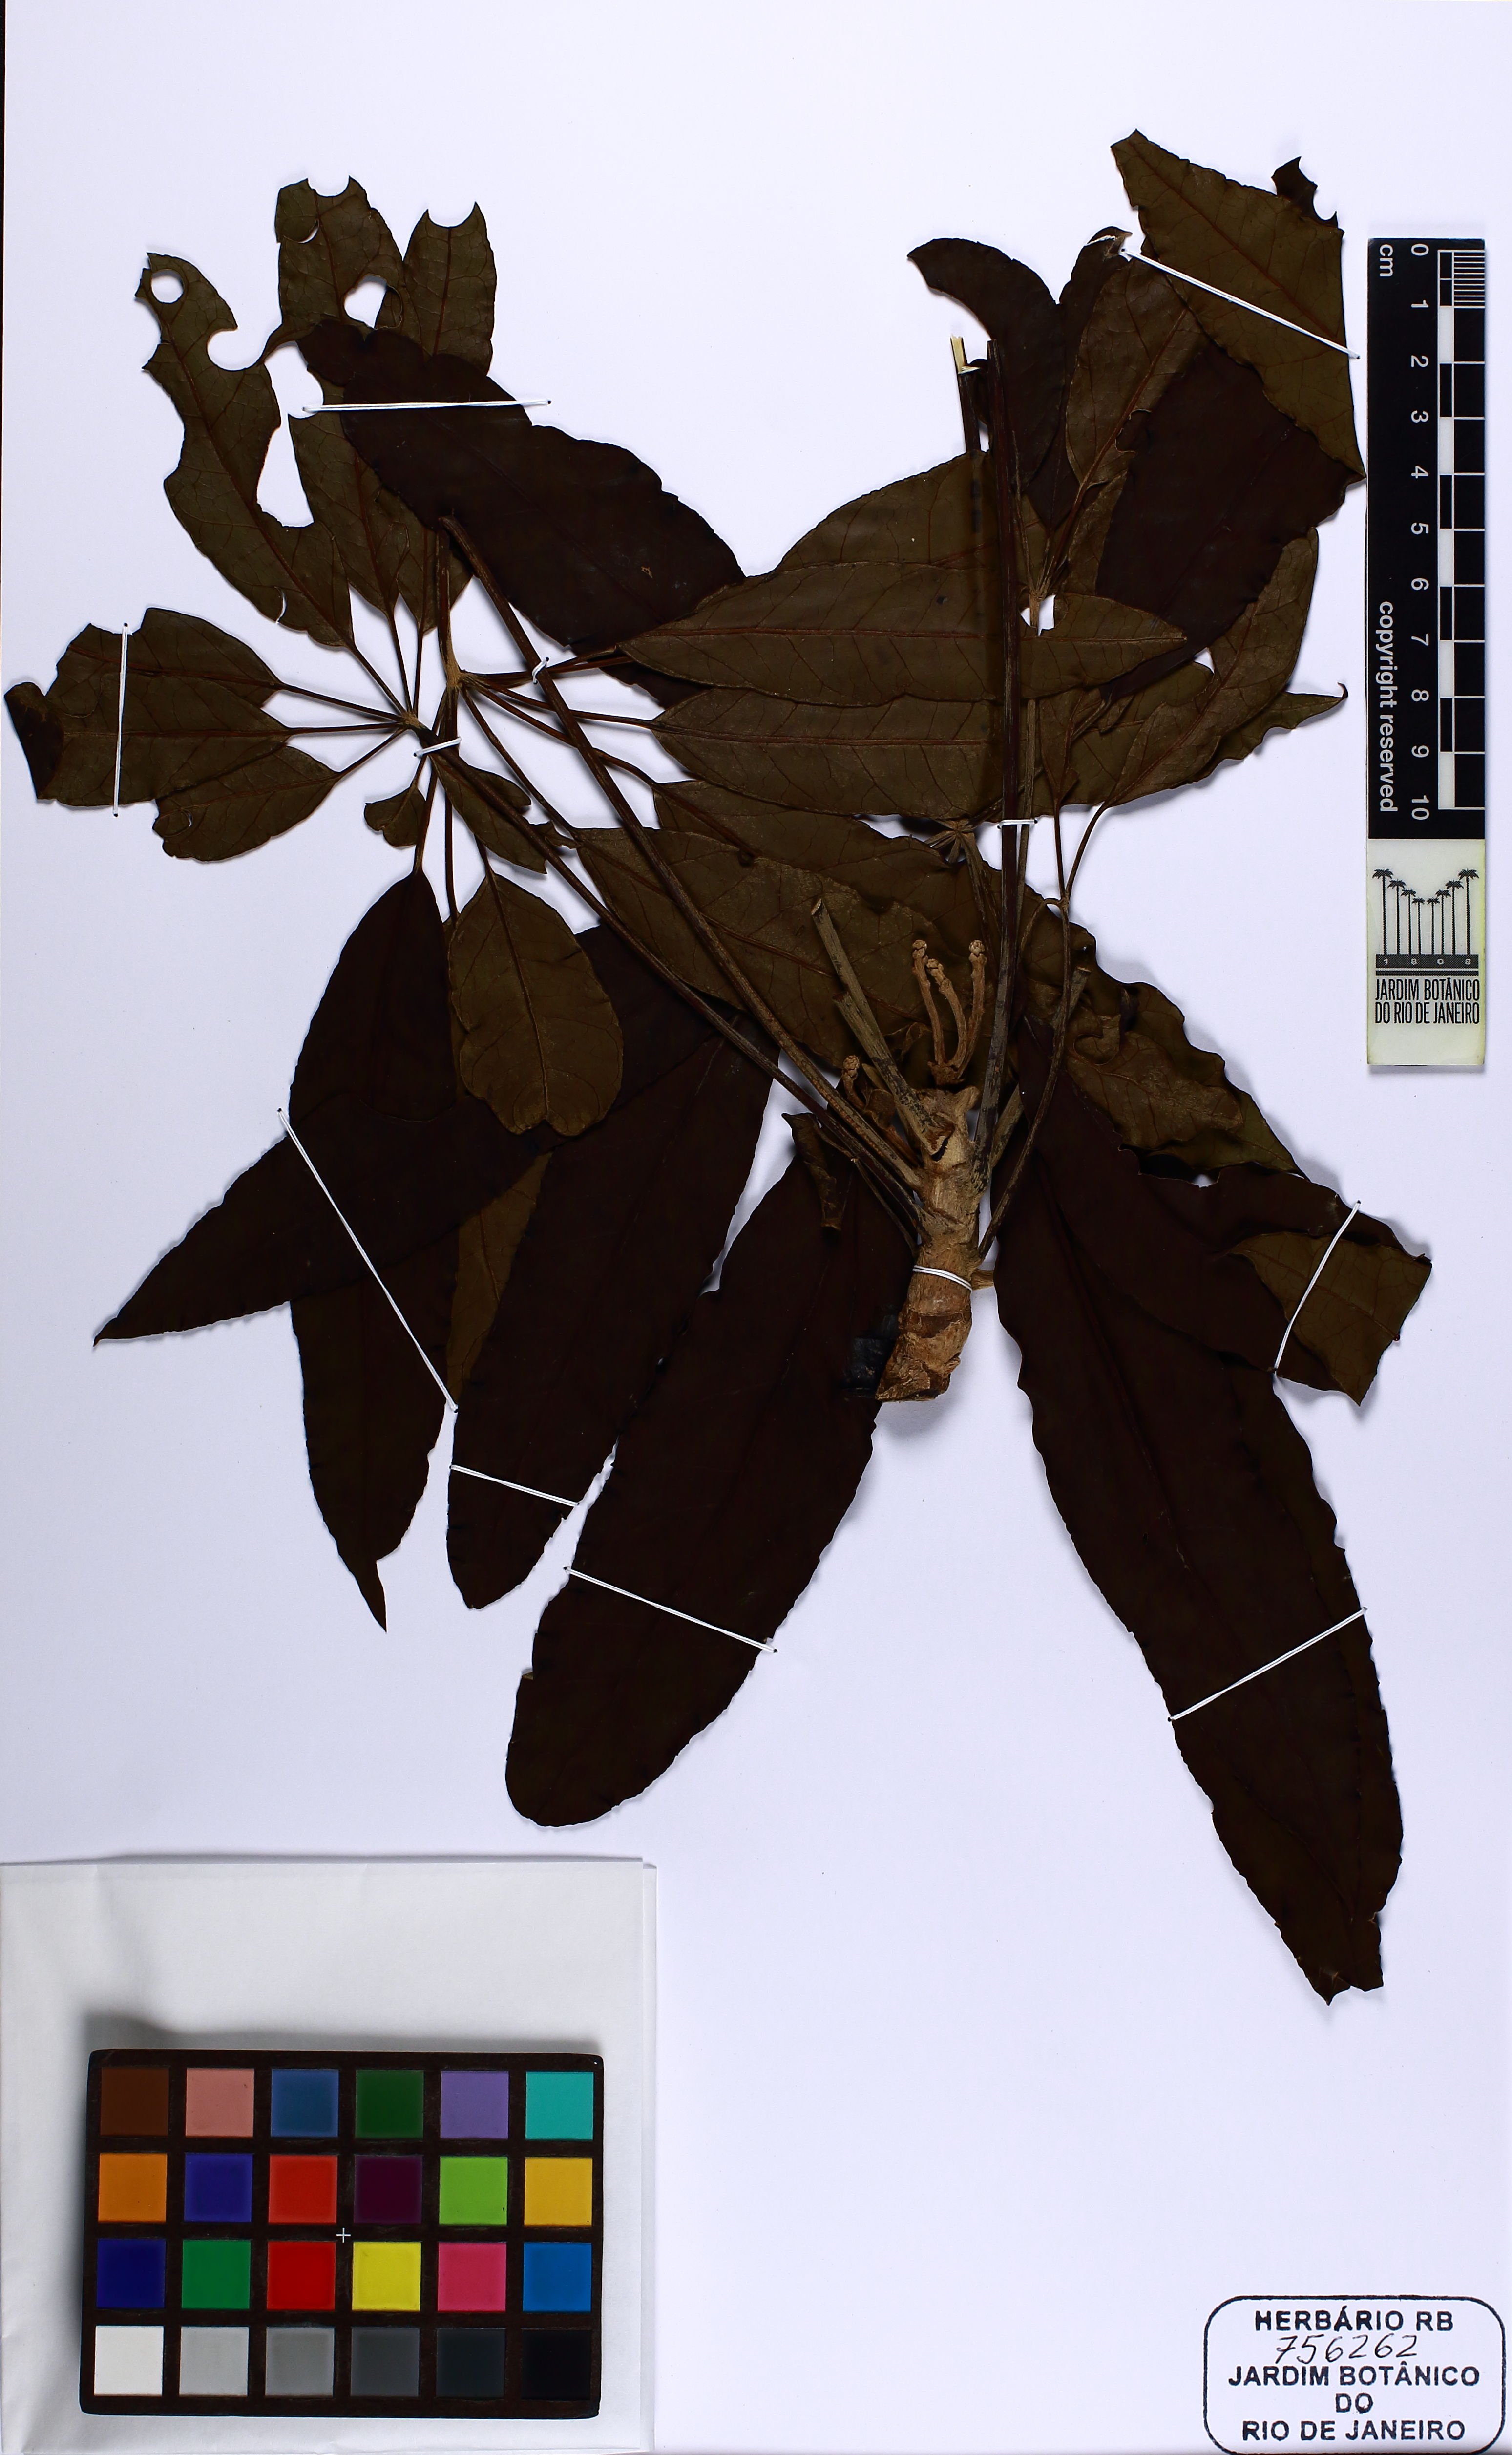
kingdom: Plantae
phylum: Tracheophyta
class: Magnoliopsida
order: Apiales
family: Araliaceae
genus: Didymopanax
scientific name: Didymopanax longepetiolatus
